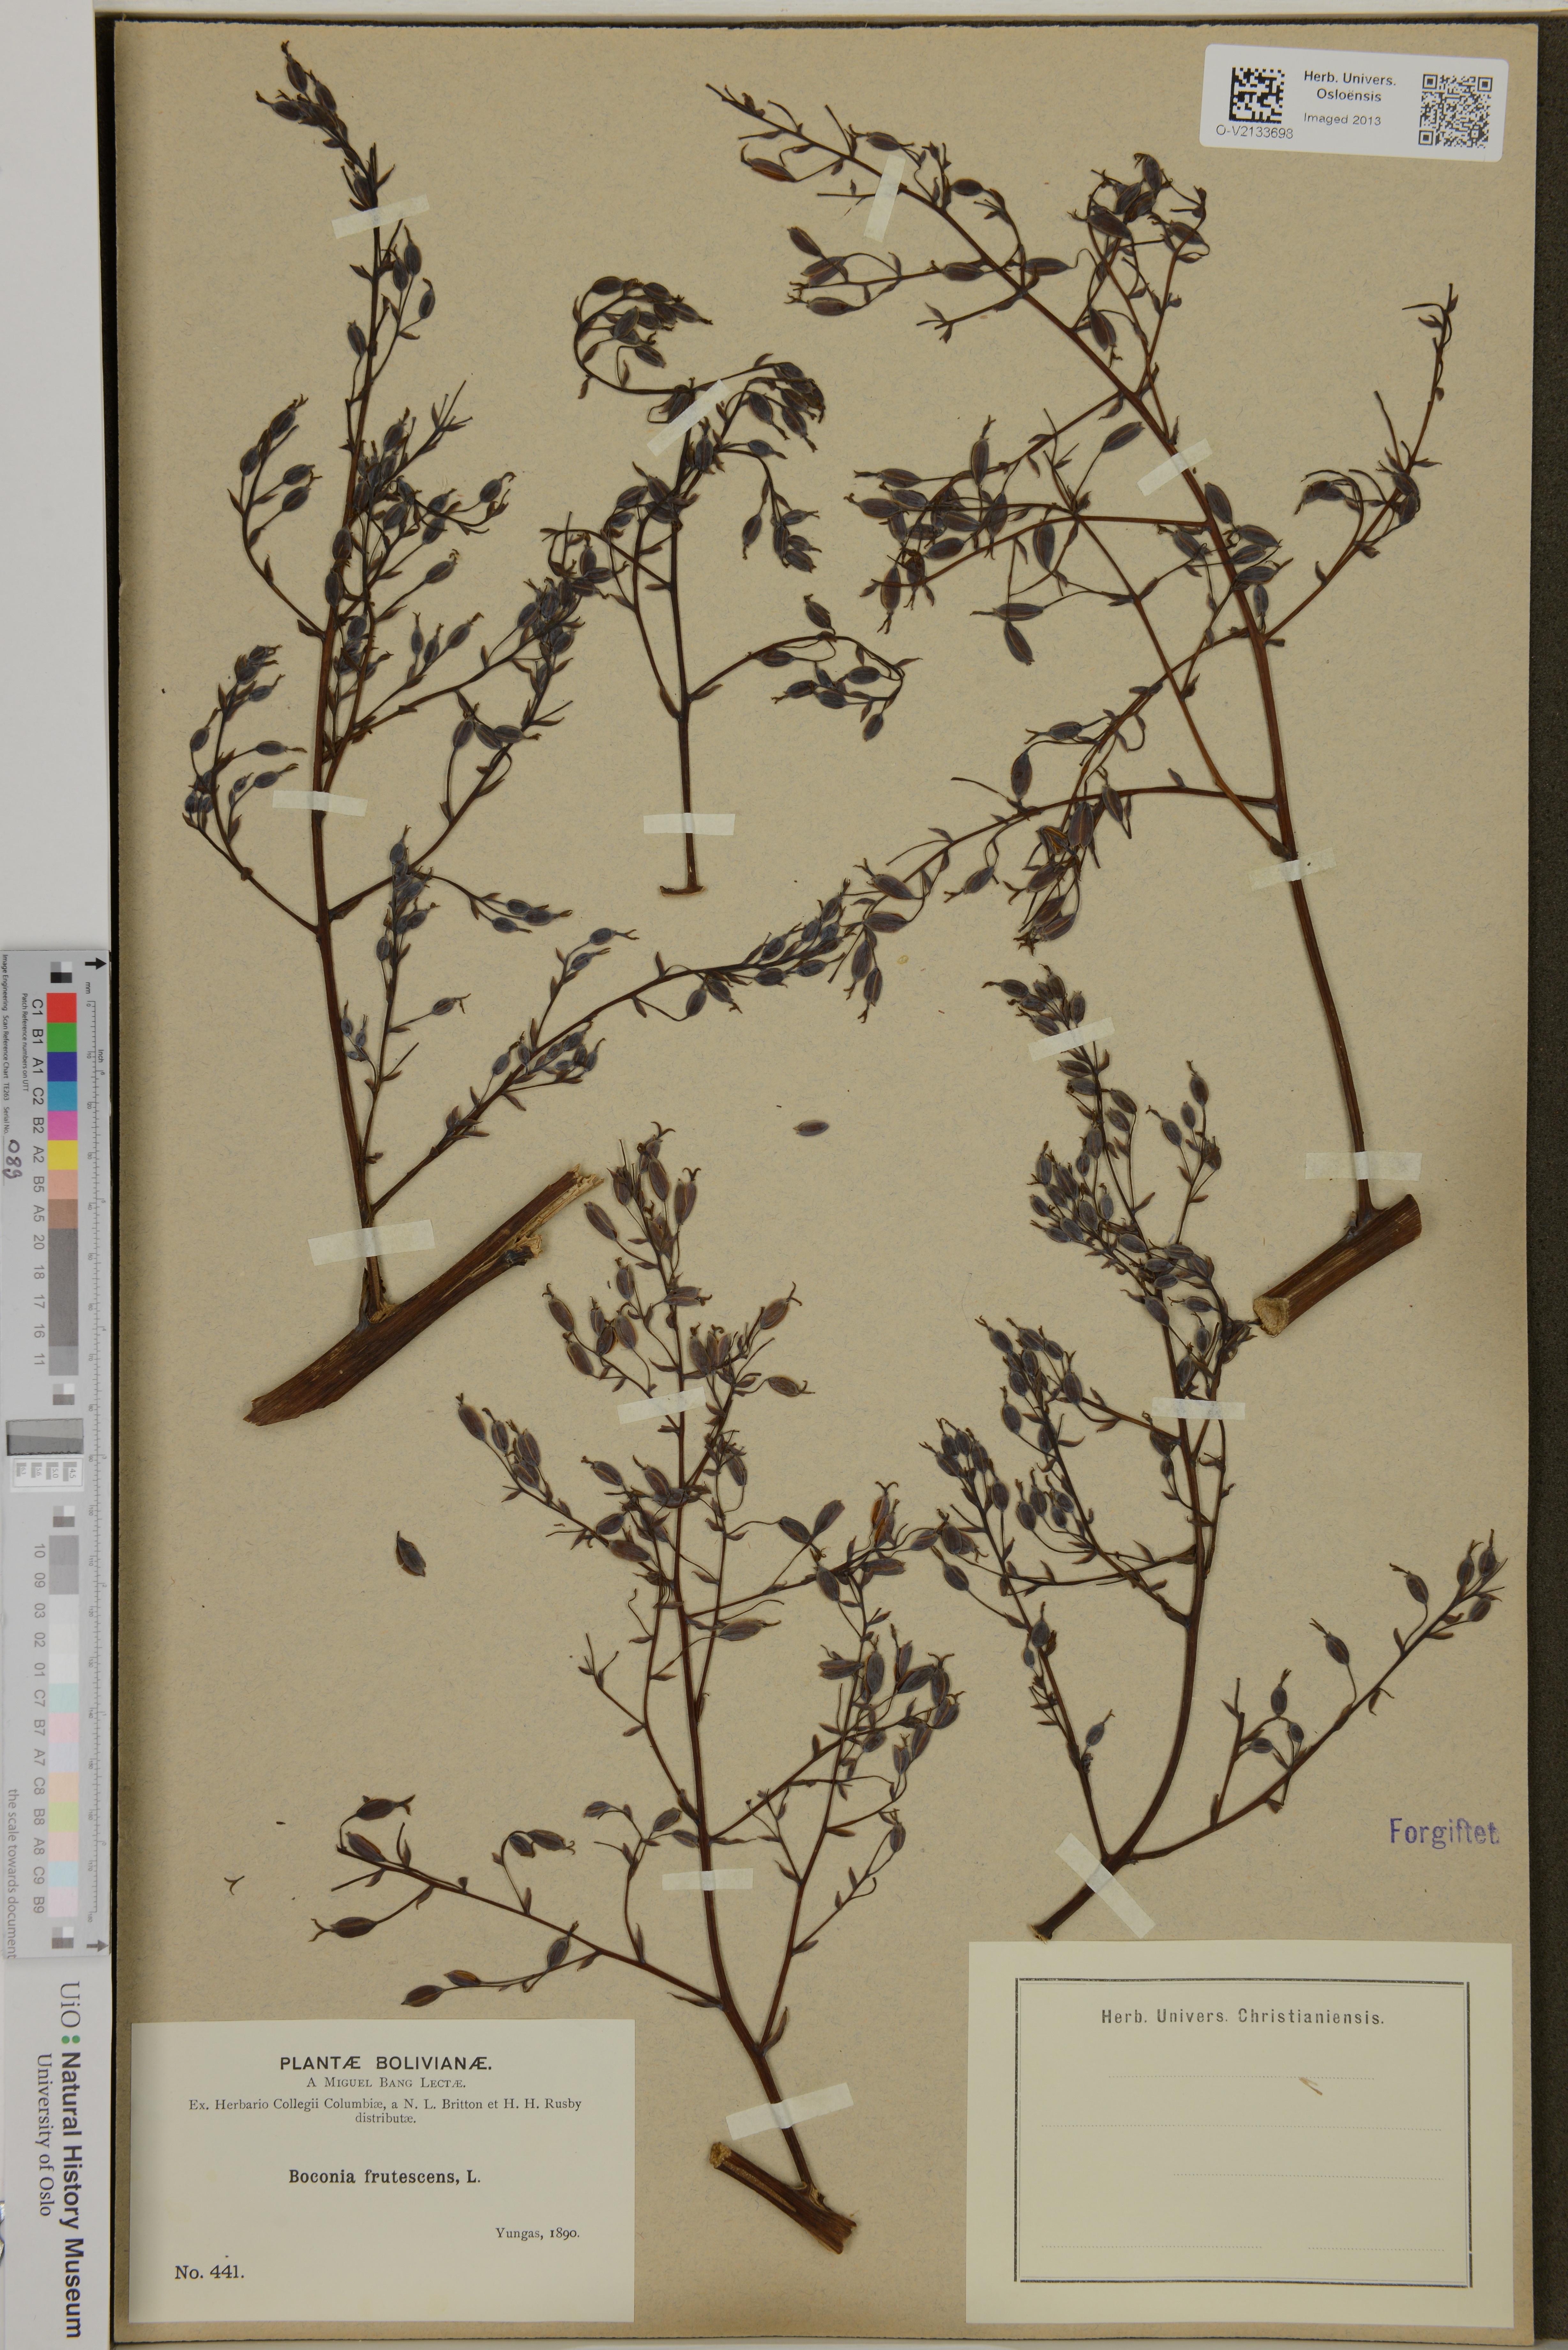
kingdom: Plantae
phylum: Tracheophyta
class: Magnoliopsida
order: Ranunculales
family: Papaveraceae
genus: Bocconia
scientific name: Bocconia frutescens
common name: Tree poppy
